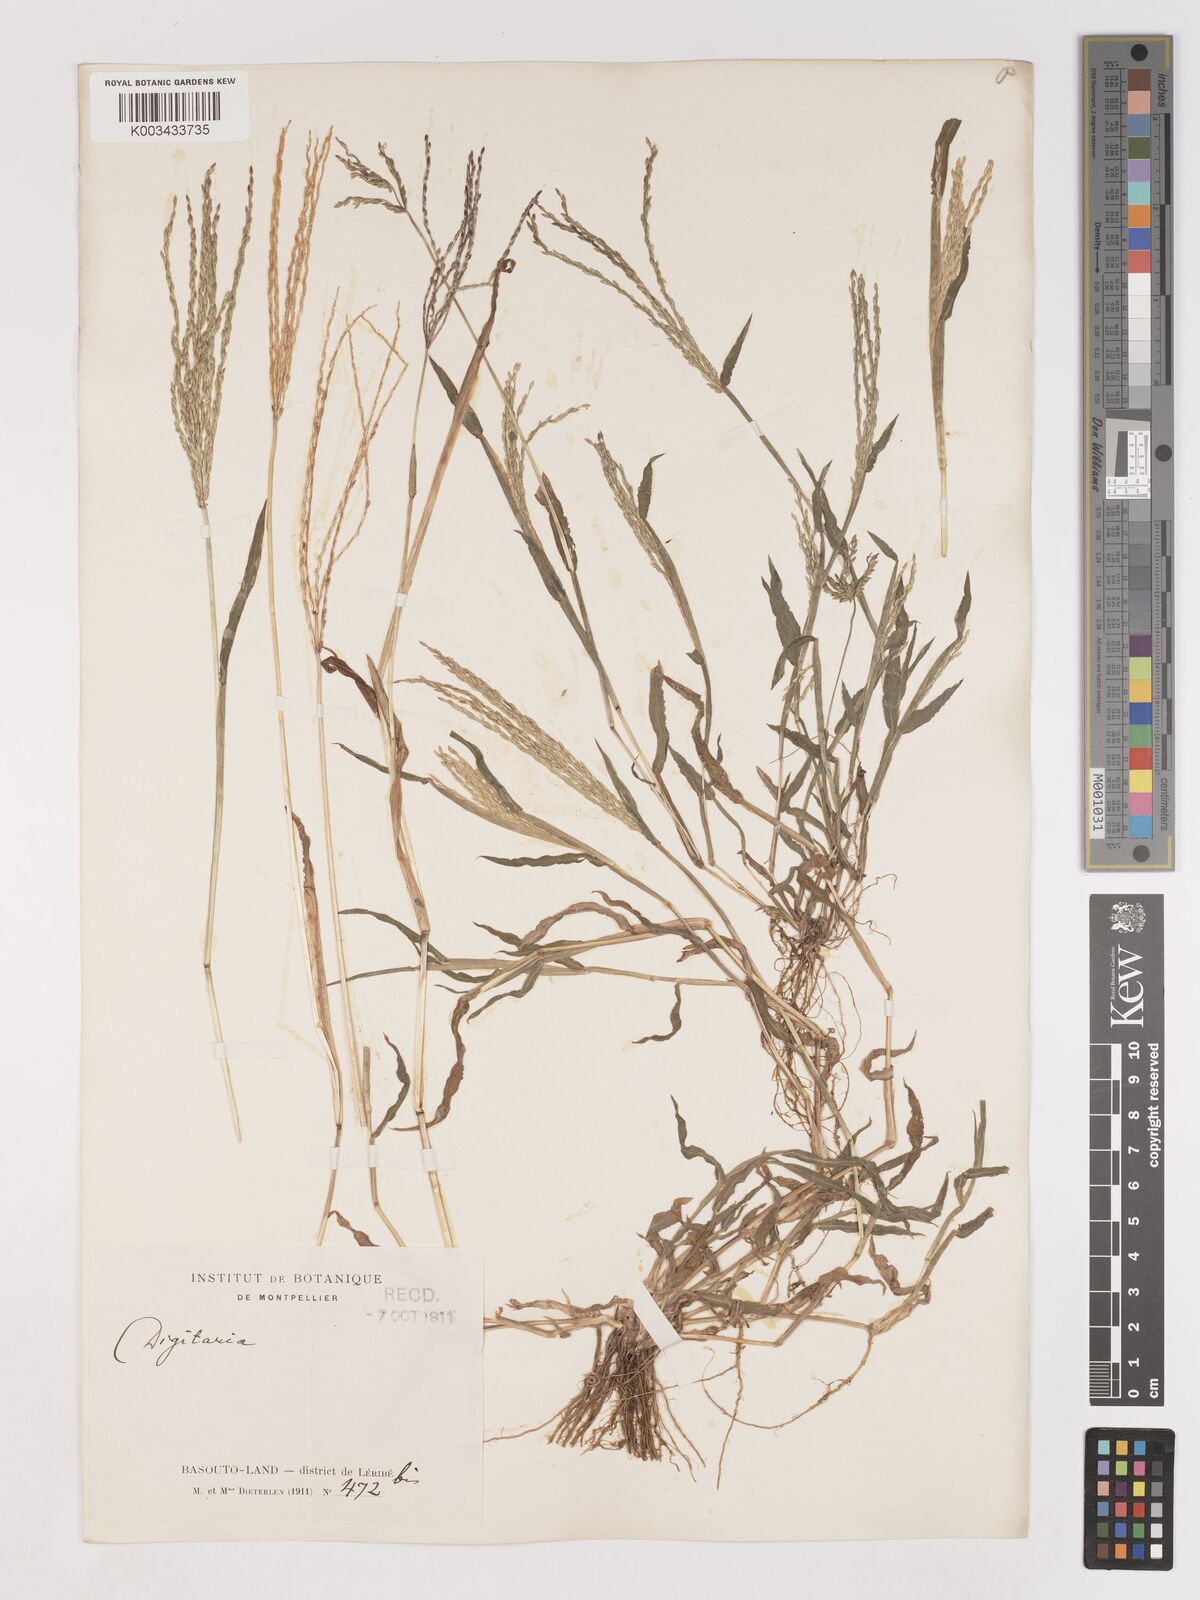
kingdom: Plantae
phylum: Tracheophyta
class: Liliopsida
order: Poales
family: Poaceae
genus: Digitaria
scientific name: Digitaria sanguinalis
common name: Hairy crabgrass
